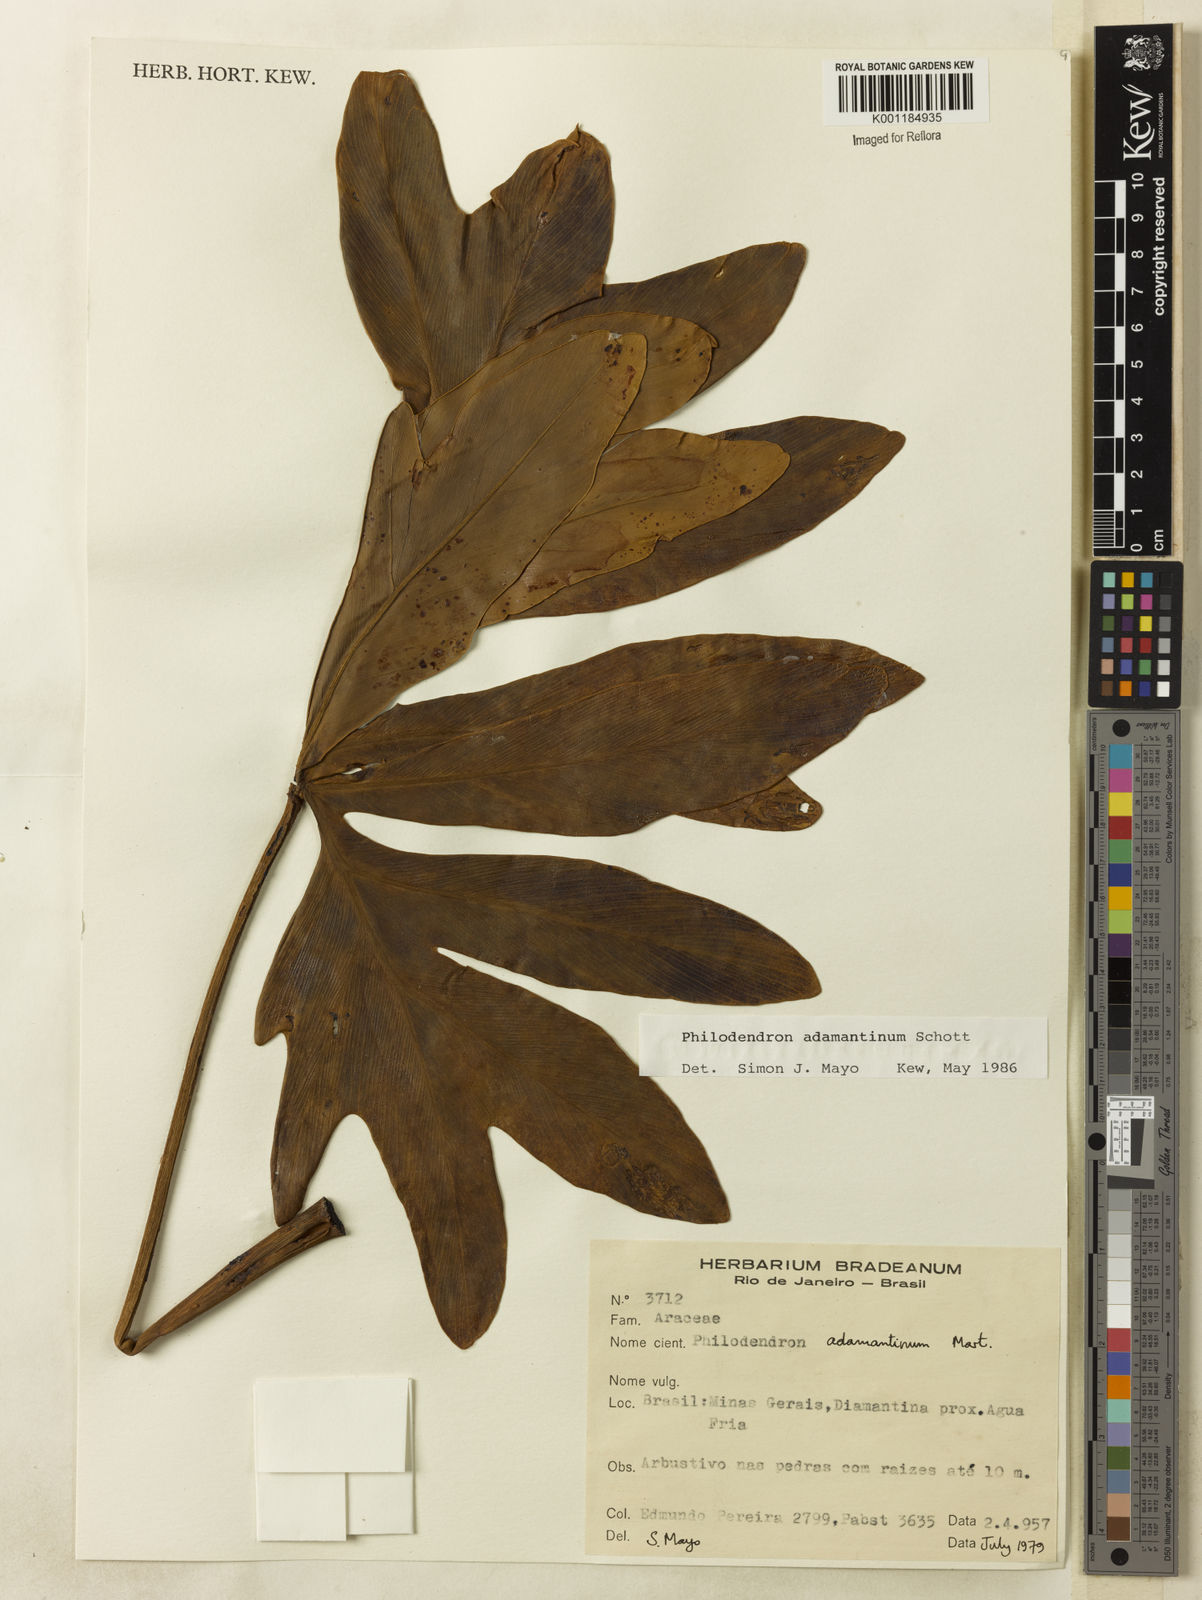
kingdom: Plantae
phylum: Tracheophyta
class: Liliopsida
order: Alismatales
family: Araceae
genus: Thaumatophyllum
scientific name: Thaumatophyllum adamantinum
